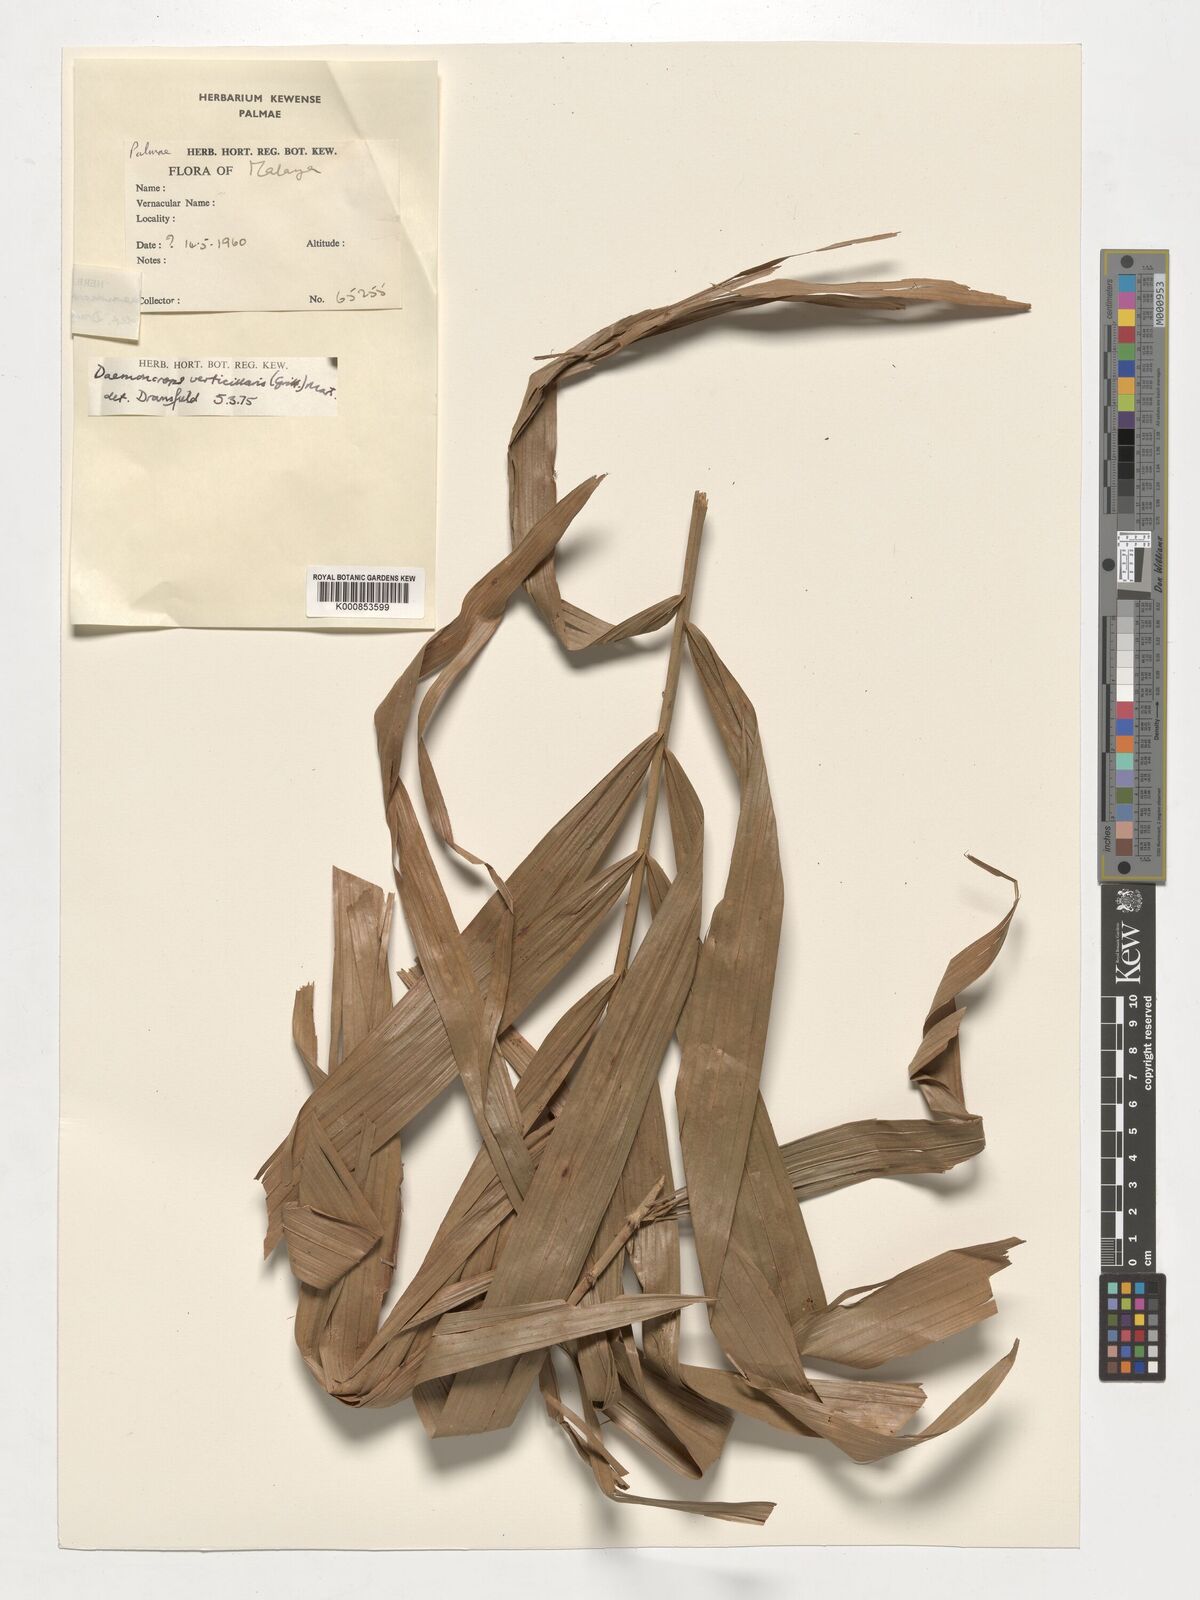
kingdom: Plantae
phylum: Tracheophyta
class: Liliopsida
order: Arecales
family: Arecaceae
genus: Calamus
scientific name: Calamus verticillaris
